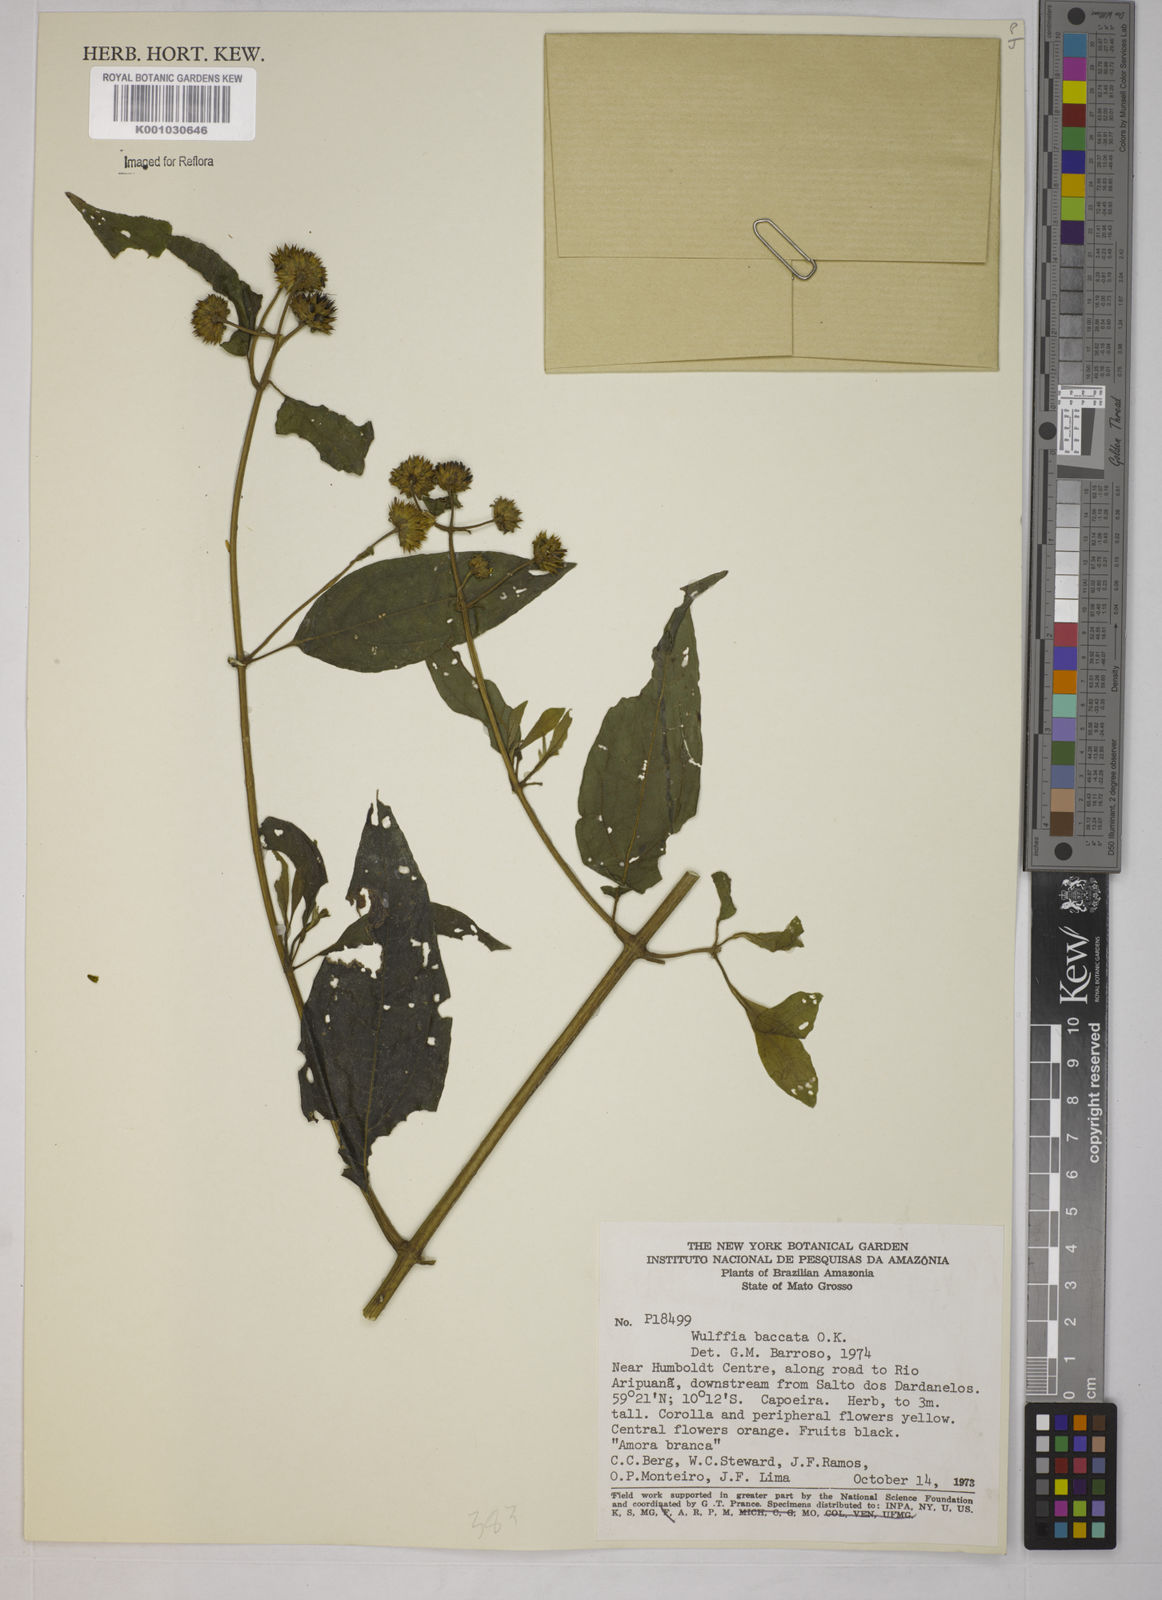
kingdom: Plantae
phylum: Tracheophyta
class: Magnoliopsida
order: Asterales
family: Asteraceae
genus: Tilesia
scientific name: Tilesia baccata
